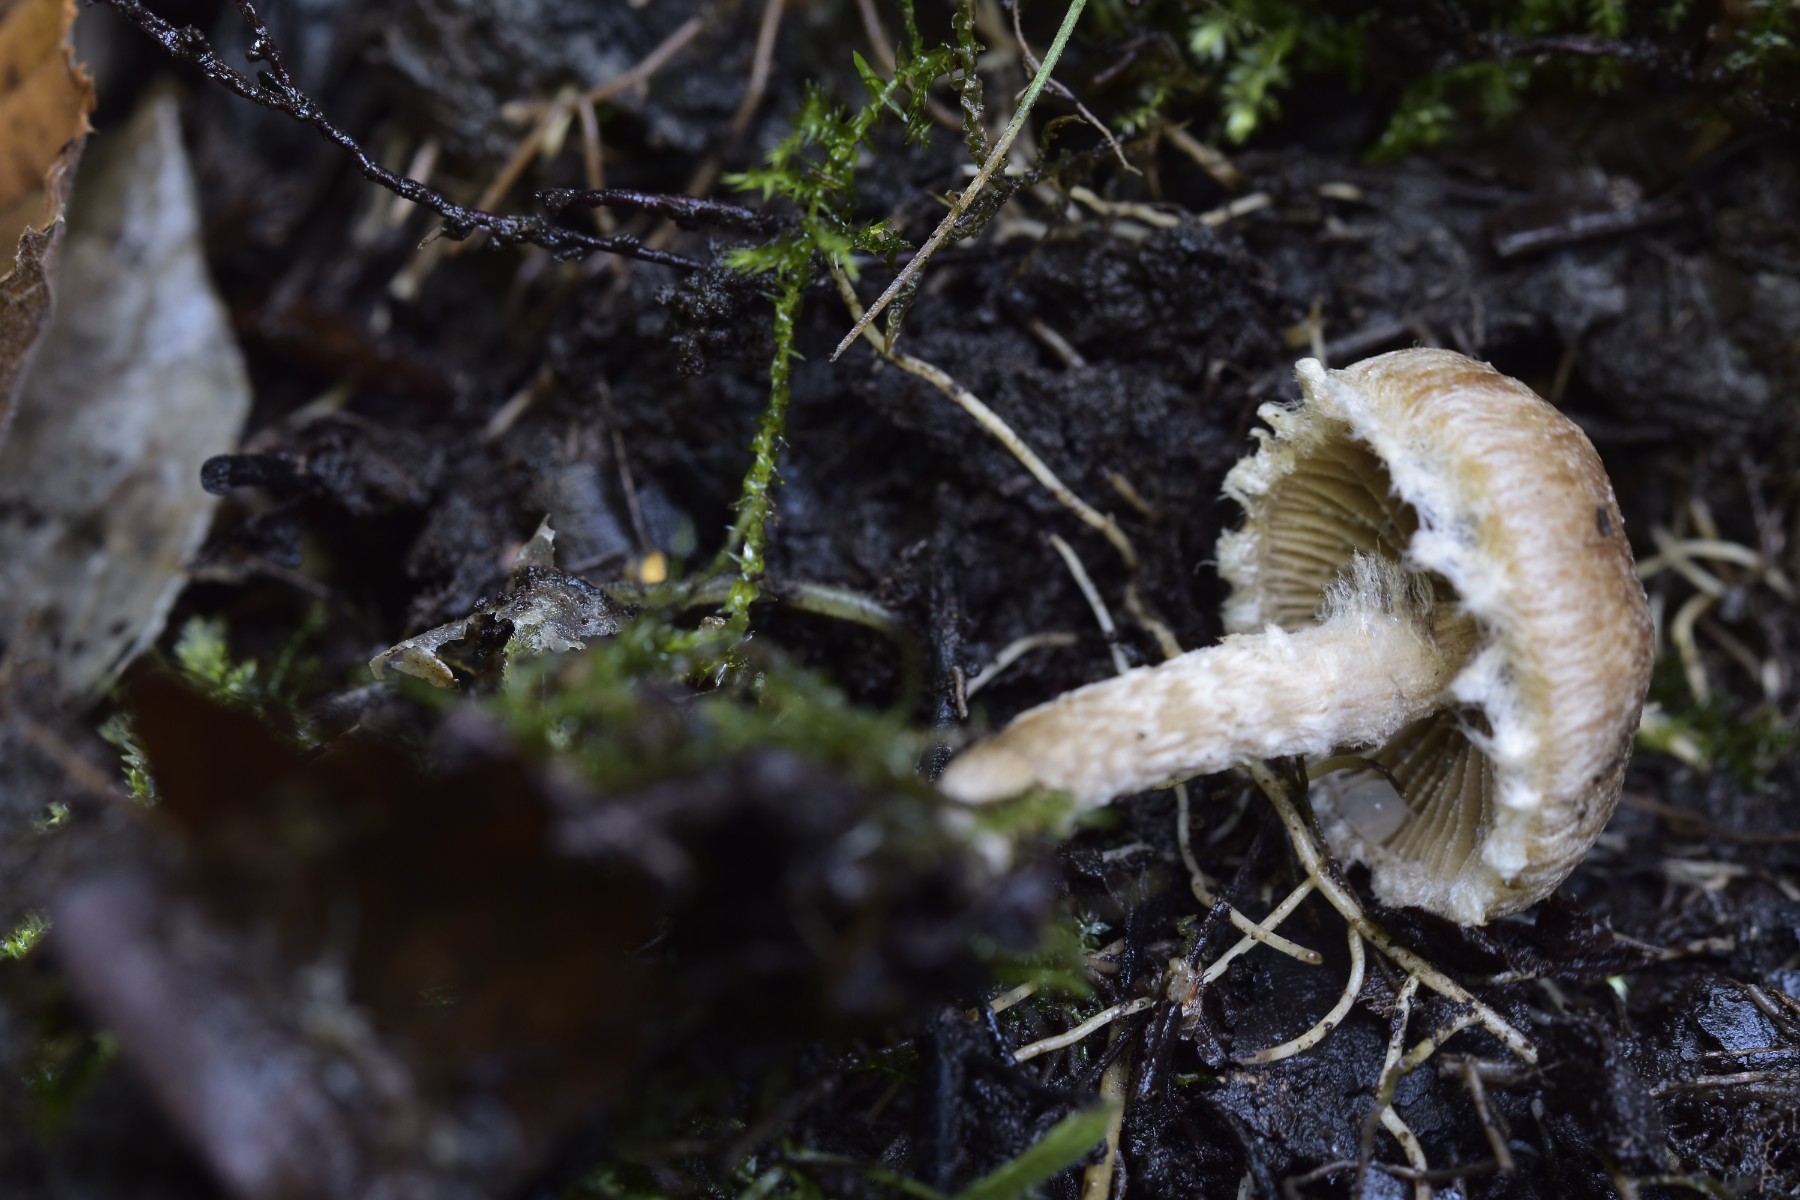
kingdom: Fungi
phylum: Basidiomycota
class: Agaricomycetes
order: Agaricales
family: Psathyrellaceae
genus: Lacrymaria
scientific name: Lacrymaria lacrymabunda
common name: grædende mørkhat
